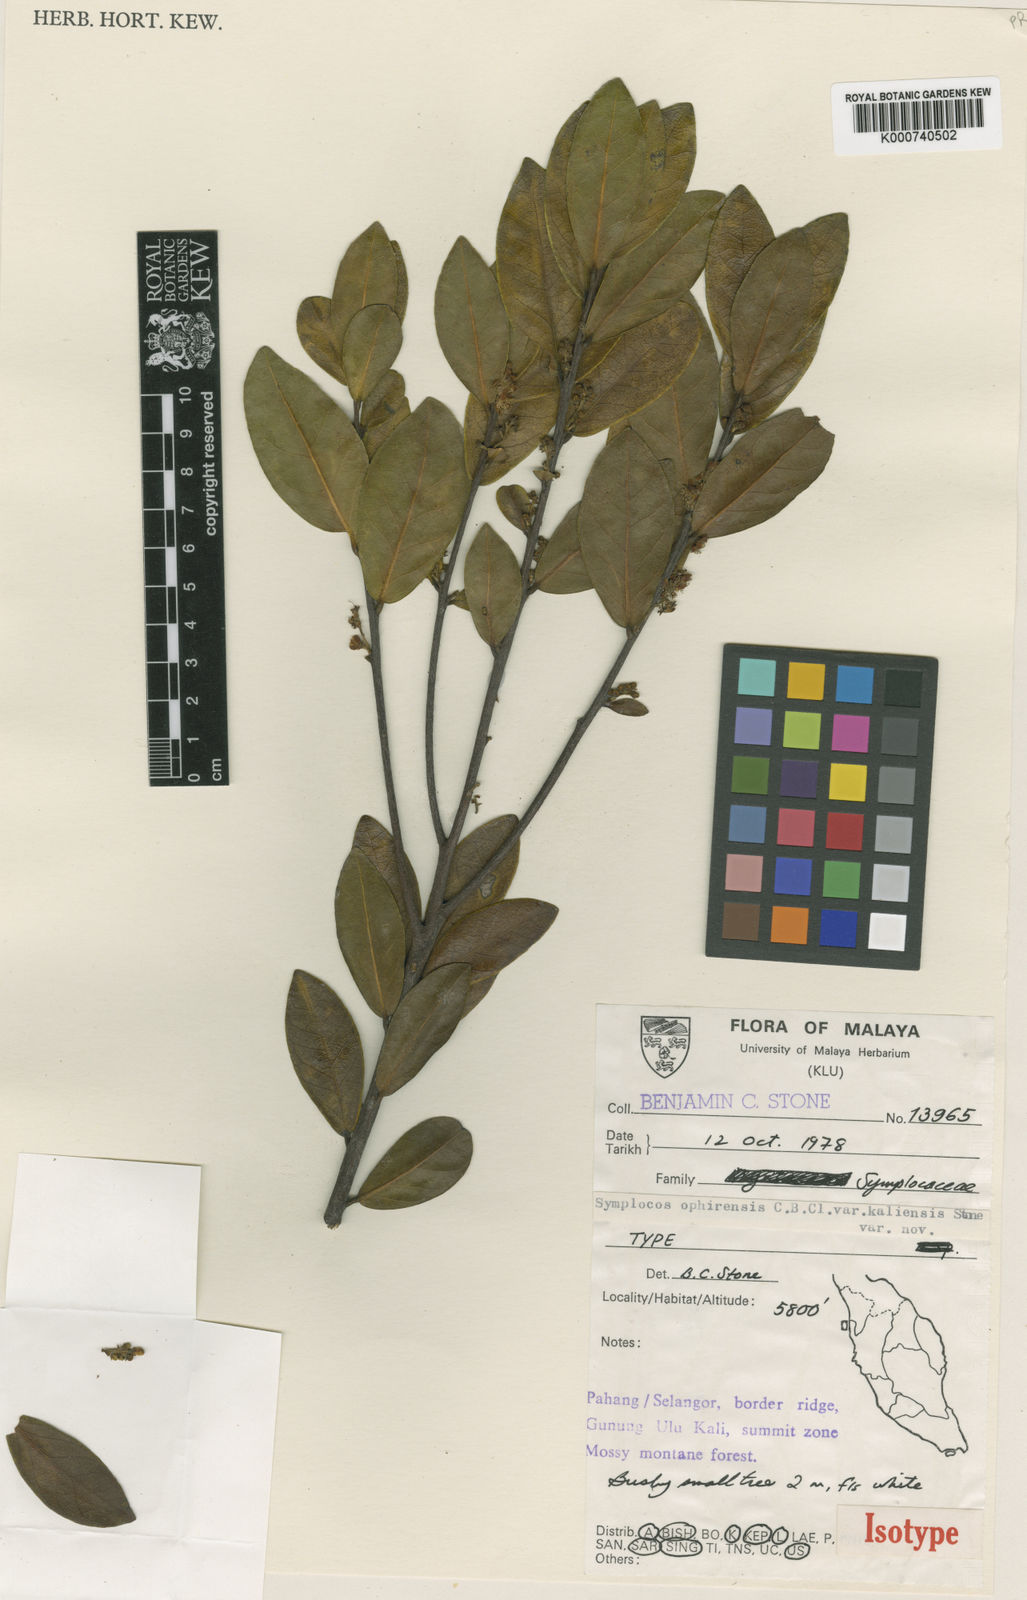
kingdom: Plantae
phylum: Tracheophyta
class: Magnoliopsida
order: Ericales
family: Symplocaceae
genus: Symplocos
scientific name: Symplocos ophirensis
